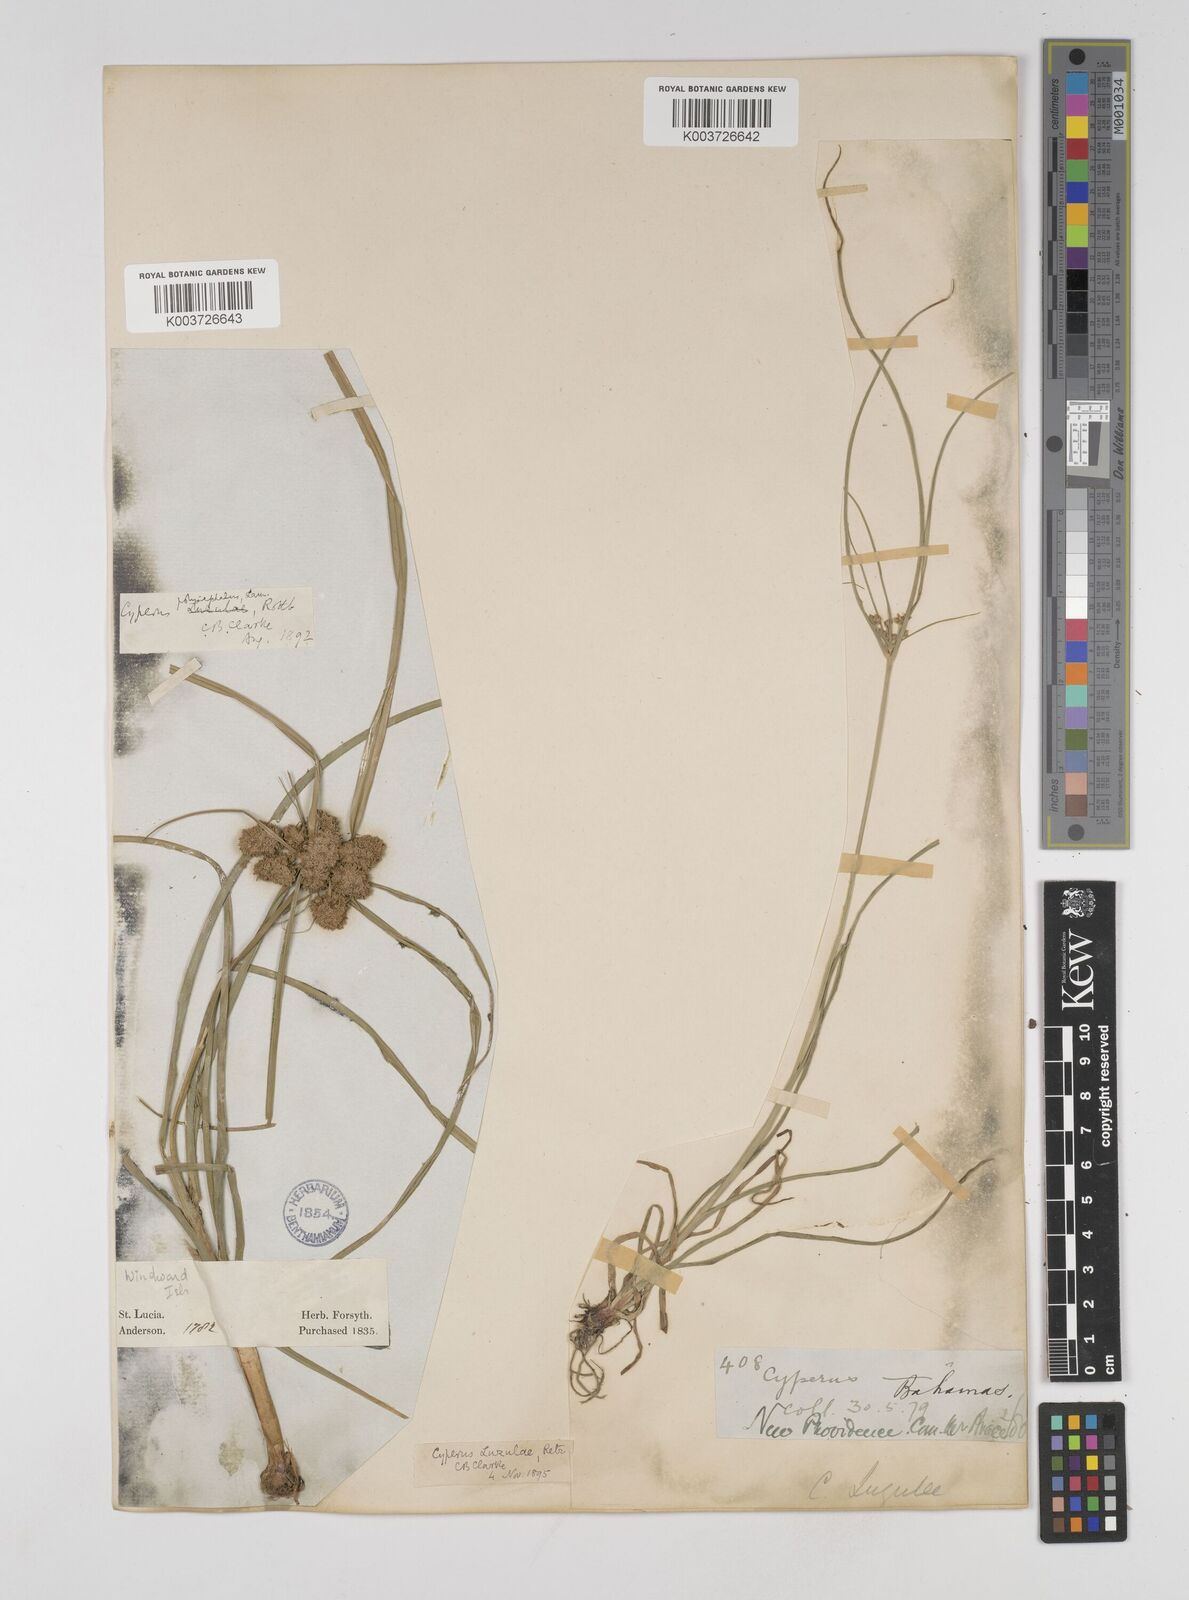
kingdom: Plantae
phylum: Tracheophyta
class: Liliopsida
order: Poales
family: Cyperaceae
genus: Cyperus
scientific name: Cyperus luzulae
